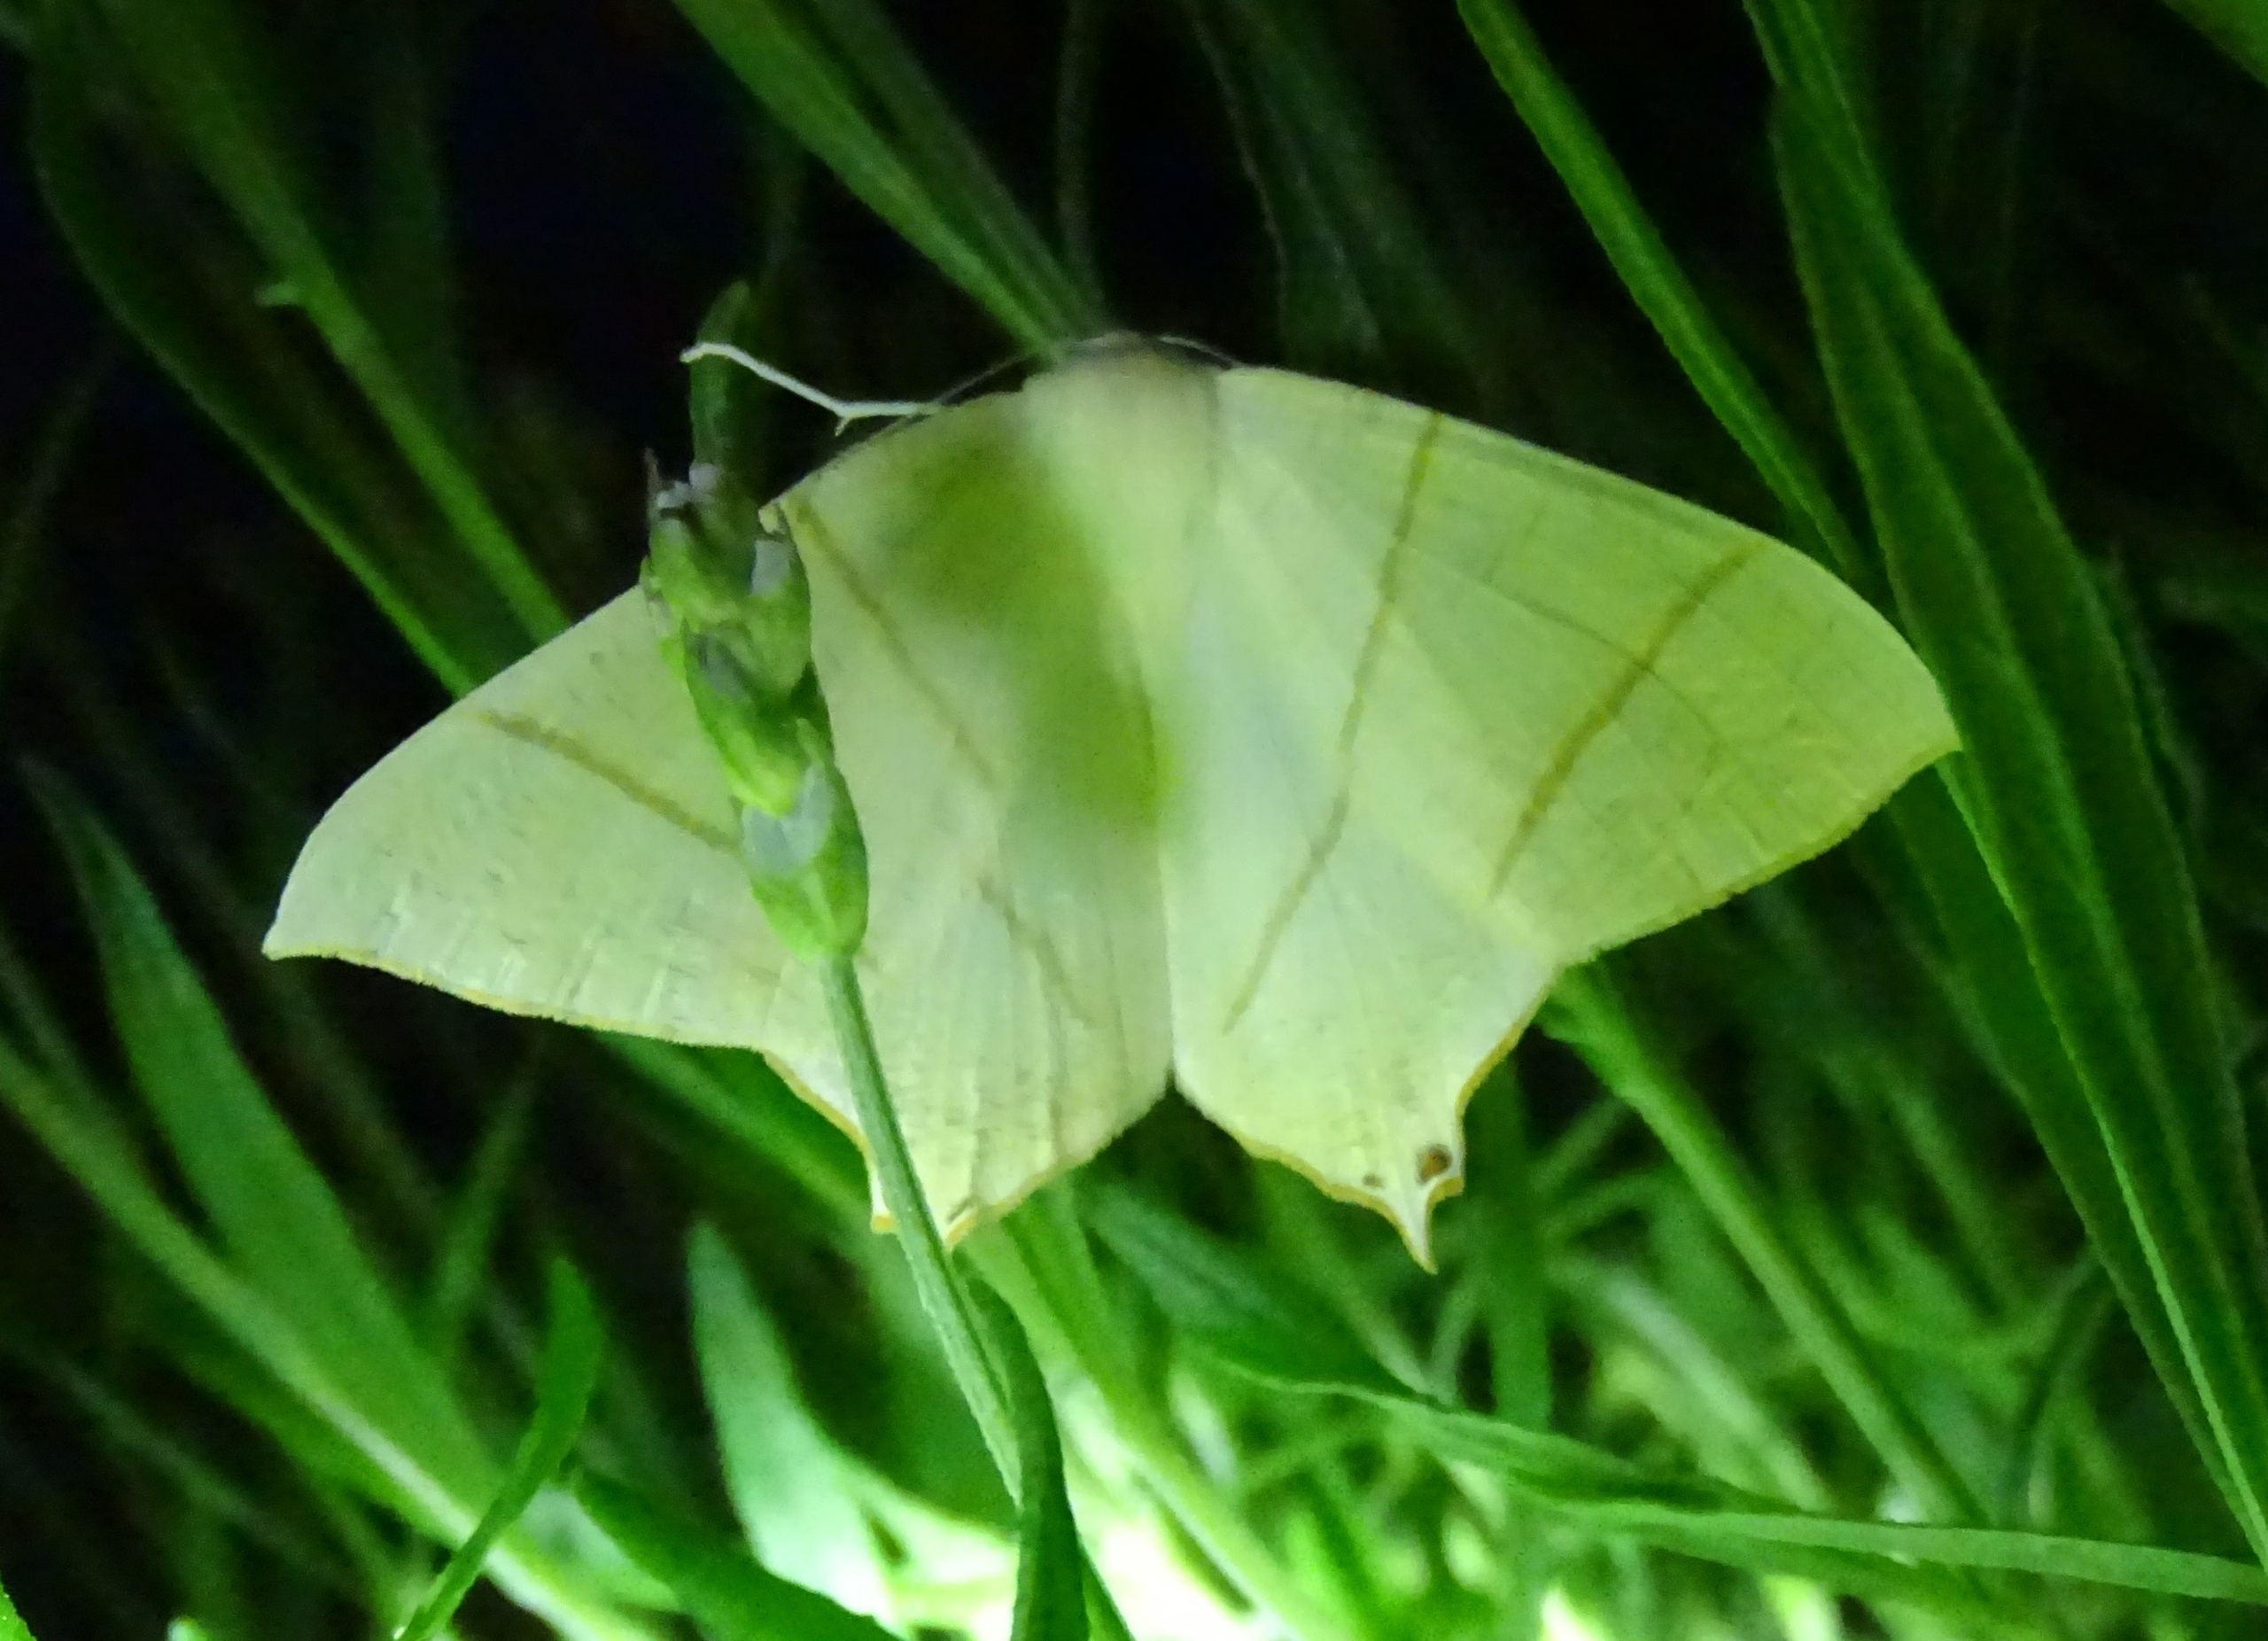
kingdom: Animalia
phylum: Arthropoda
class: Insecta
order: Lepidoptera
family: Geometridae
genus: Ourapteryx
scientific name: Ourapteryx sambucaria
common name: Natsvalehale
